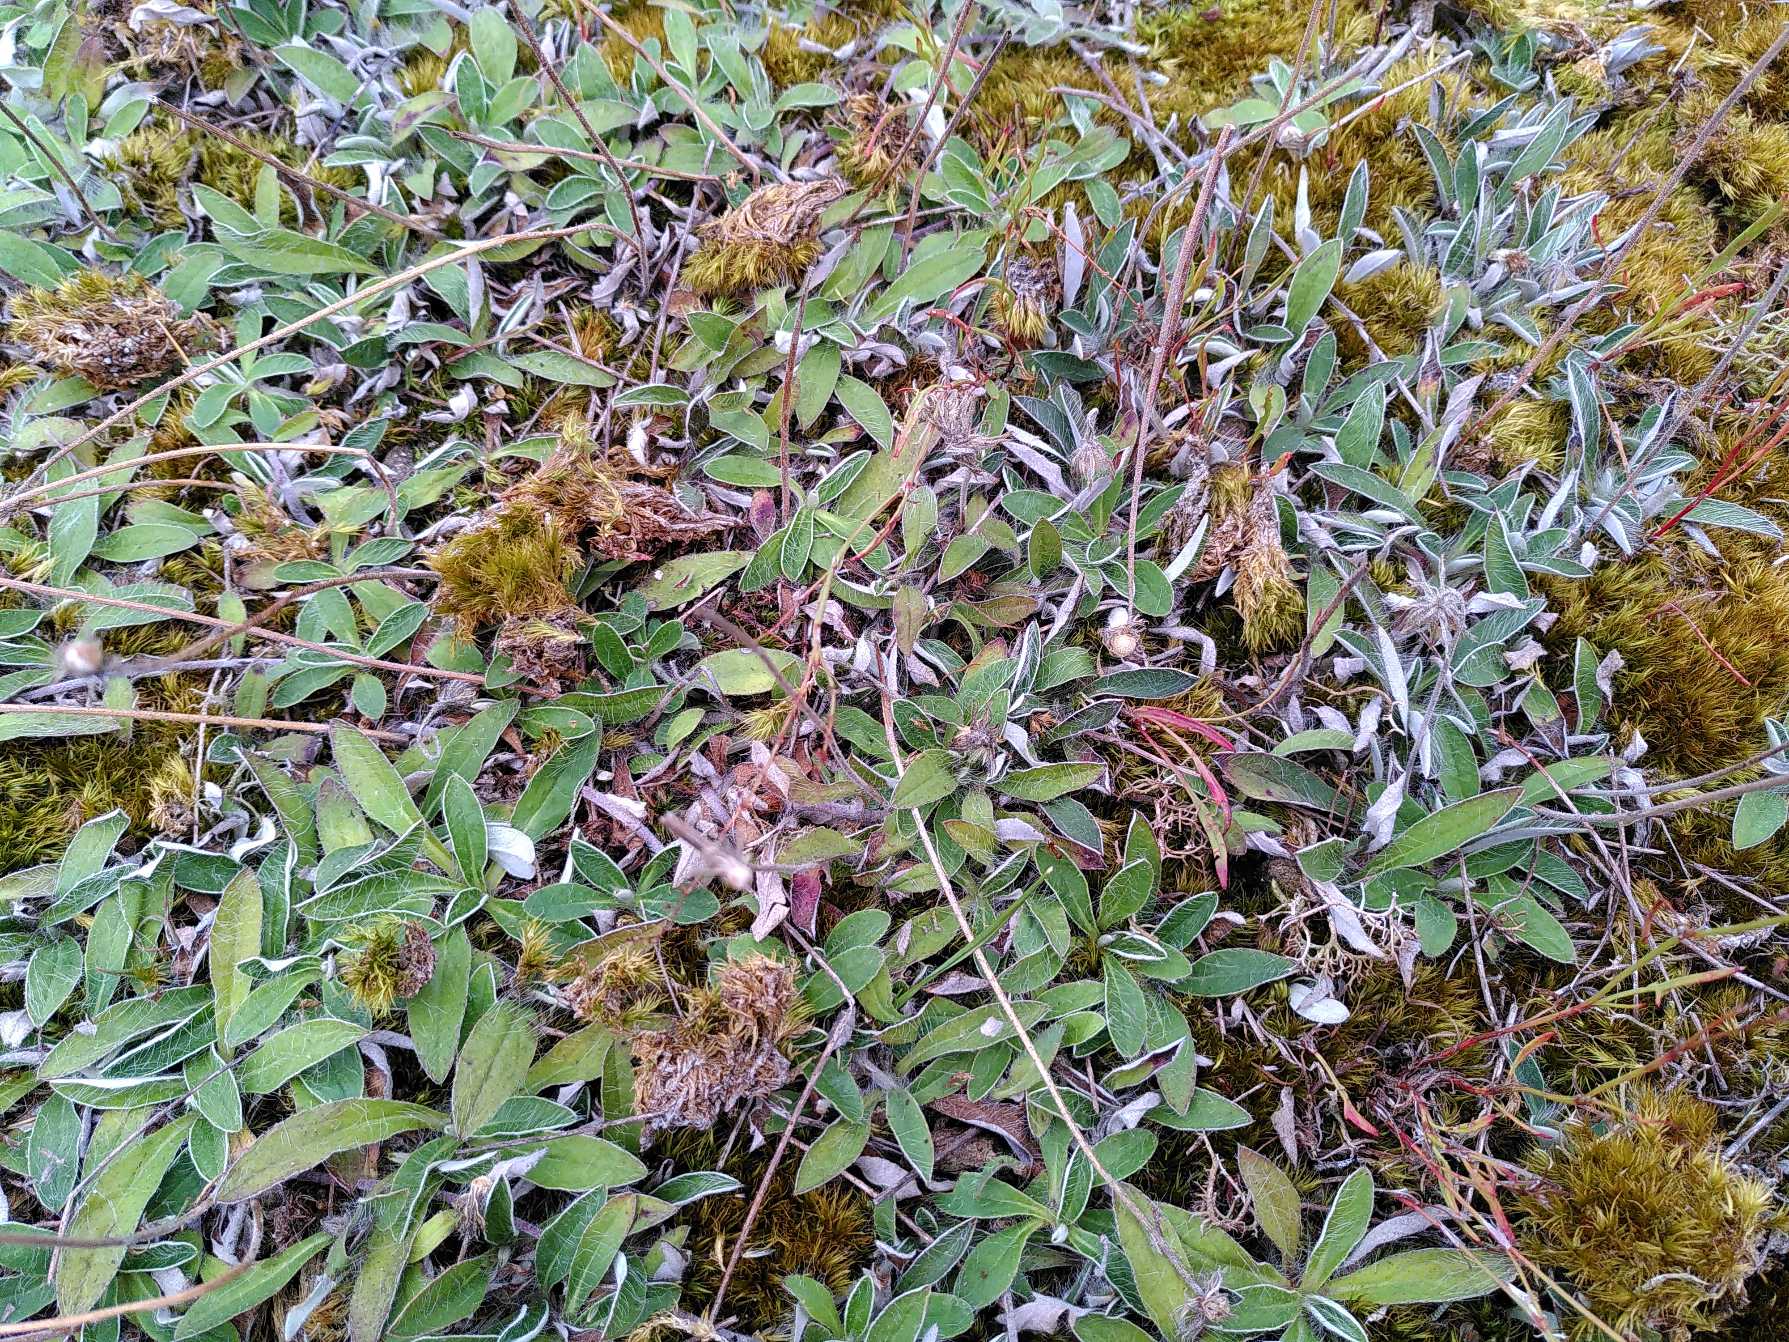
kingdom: Plantae
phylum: Tracheophyta
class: Magnoliopsida
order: Asterales
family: Asteraceae
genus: Pilosella
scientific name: Pilosella officinarum
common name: Håret høgeurt
